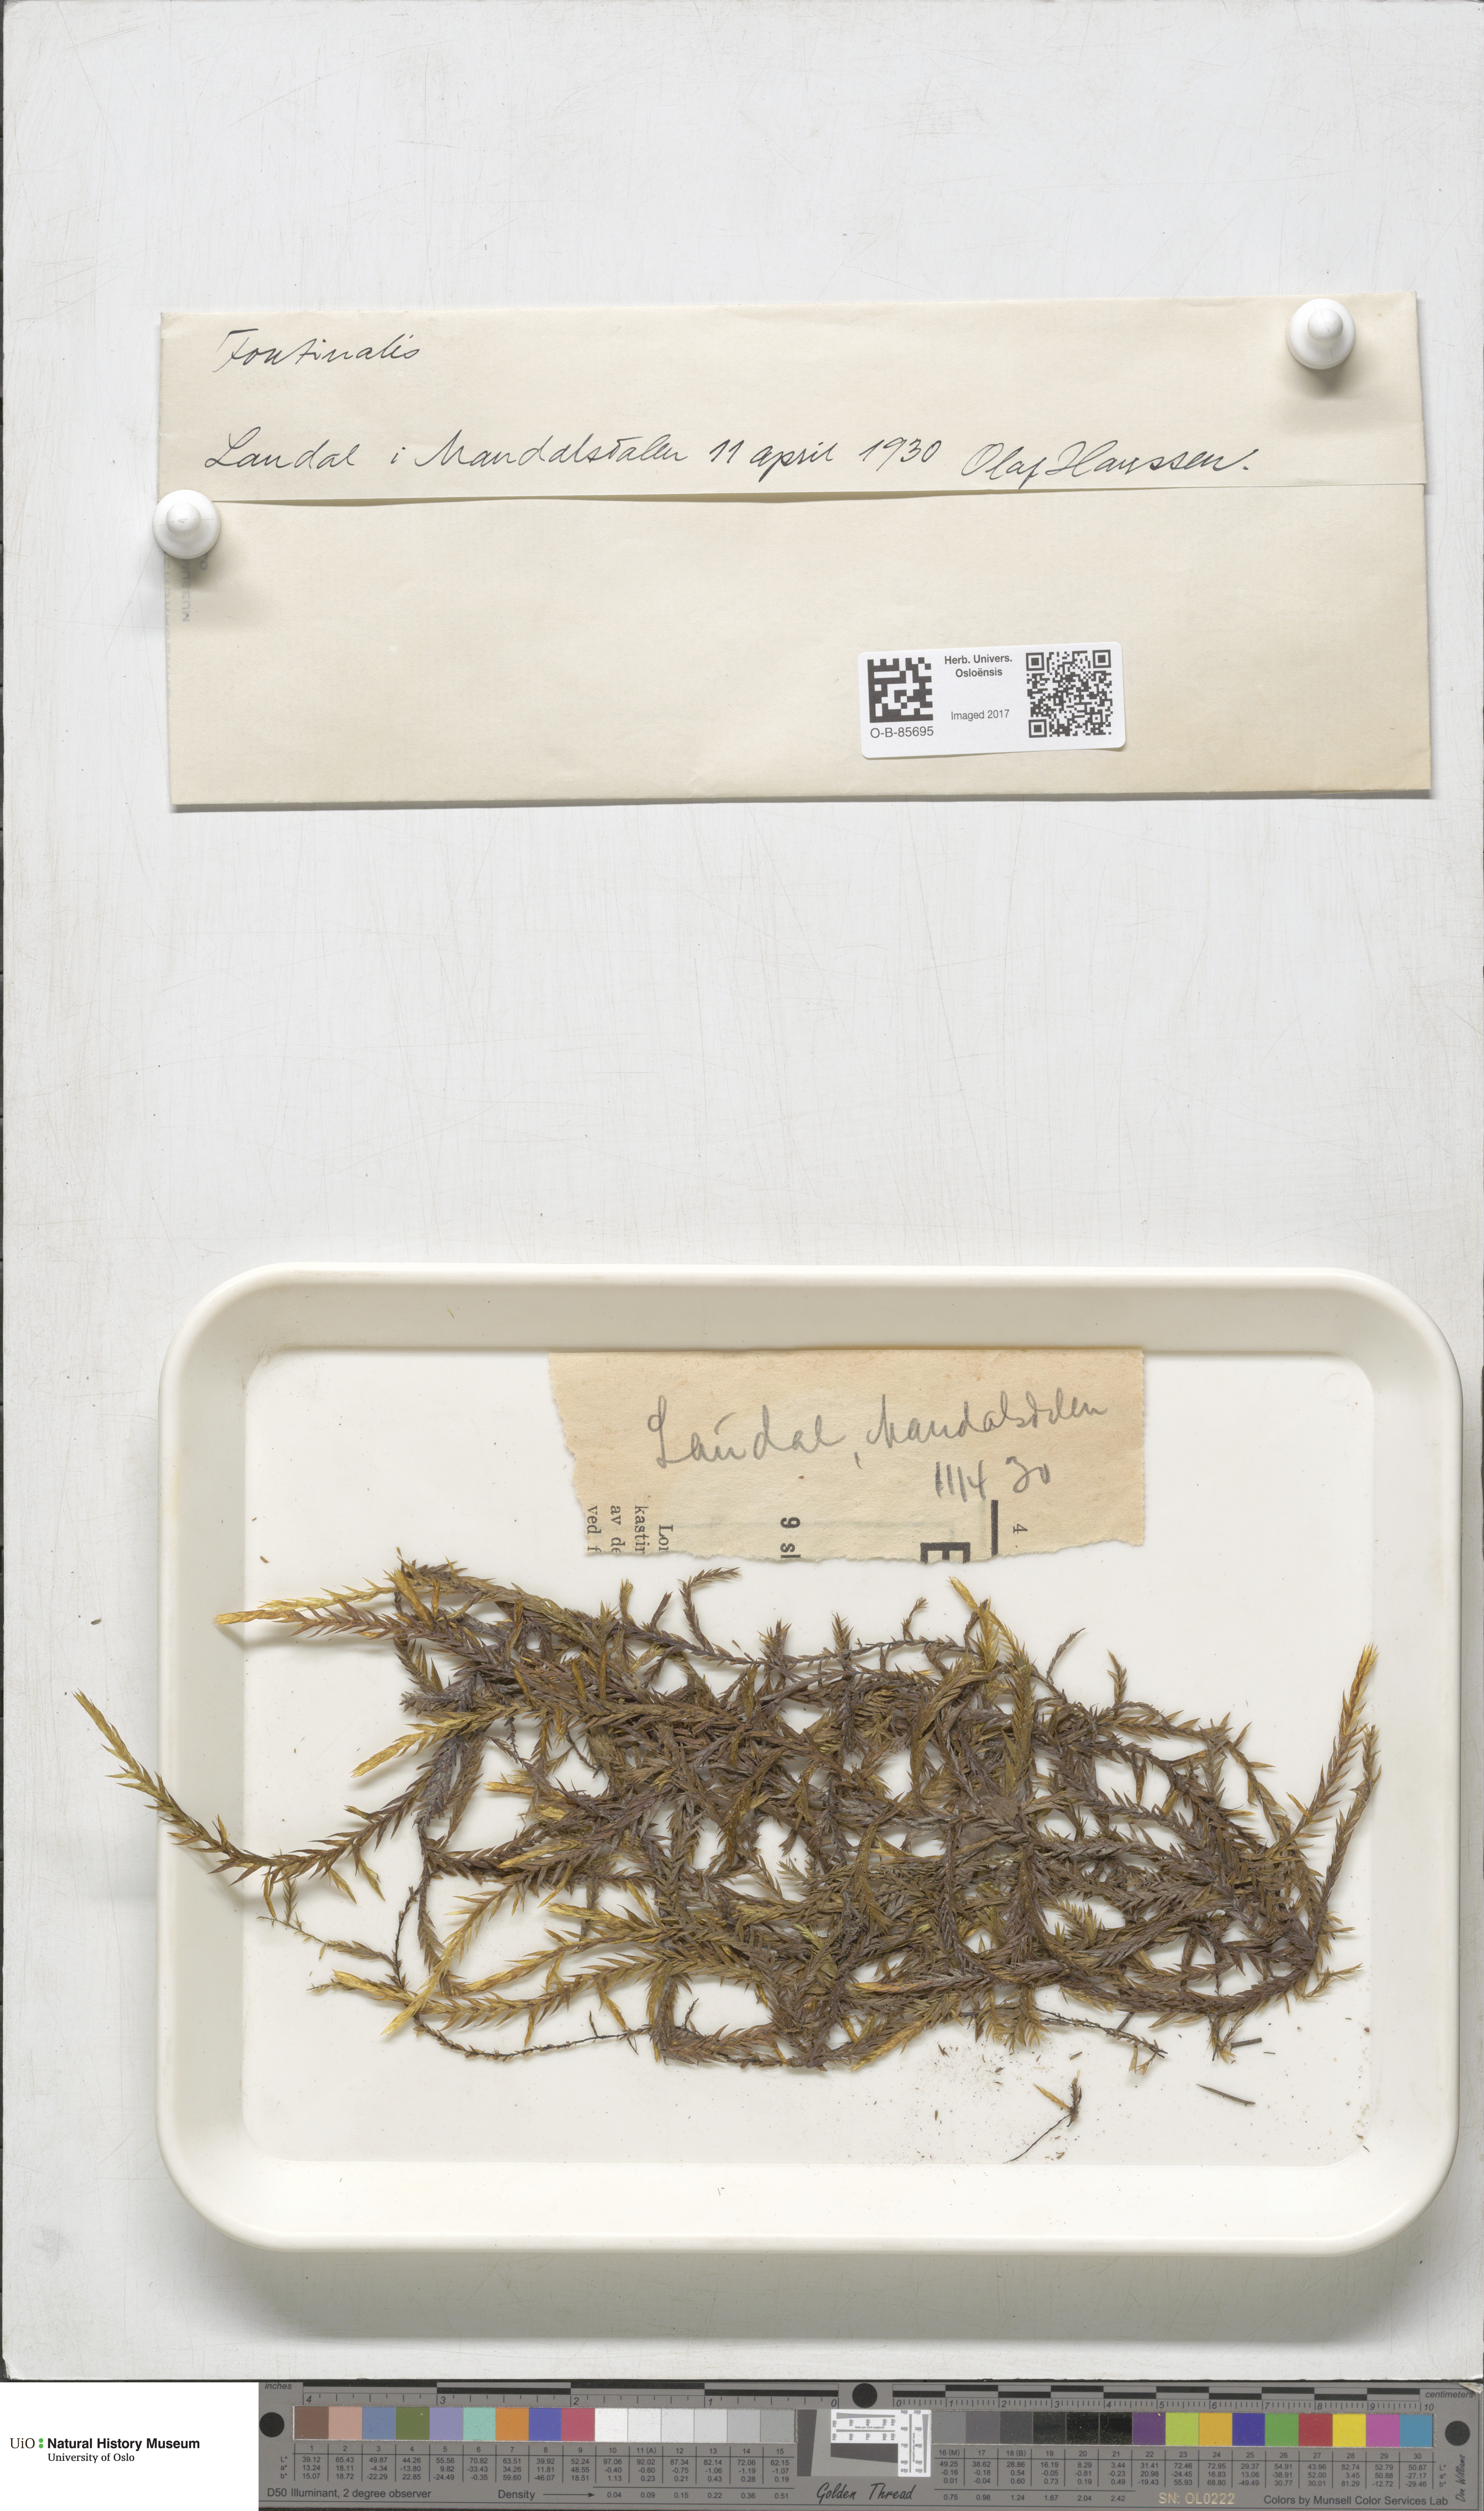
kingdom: Plantae
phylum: Bryophyta
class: Bryopsida
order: Hypnales
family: Fontinalaceae
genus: Fontinalis
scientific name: Fontinalis
